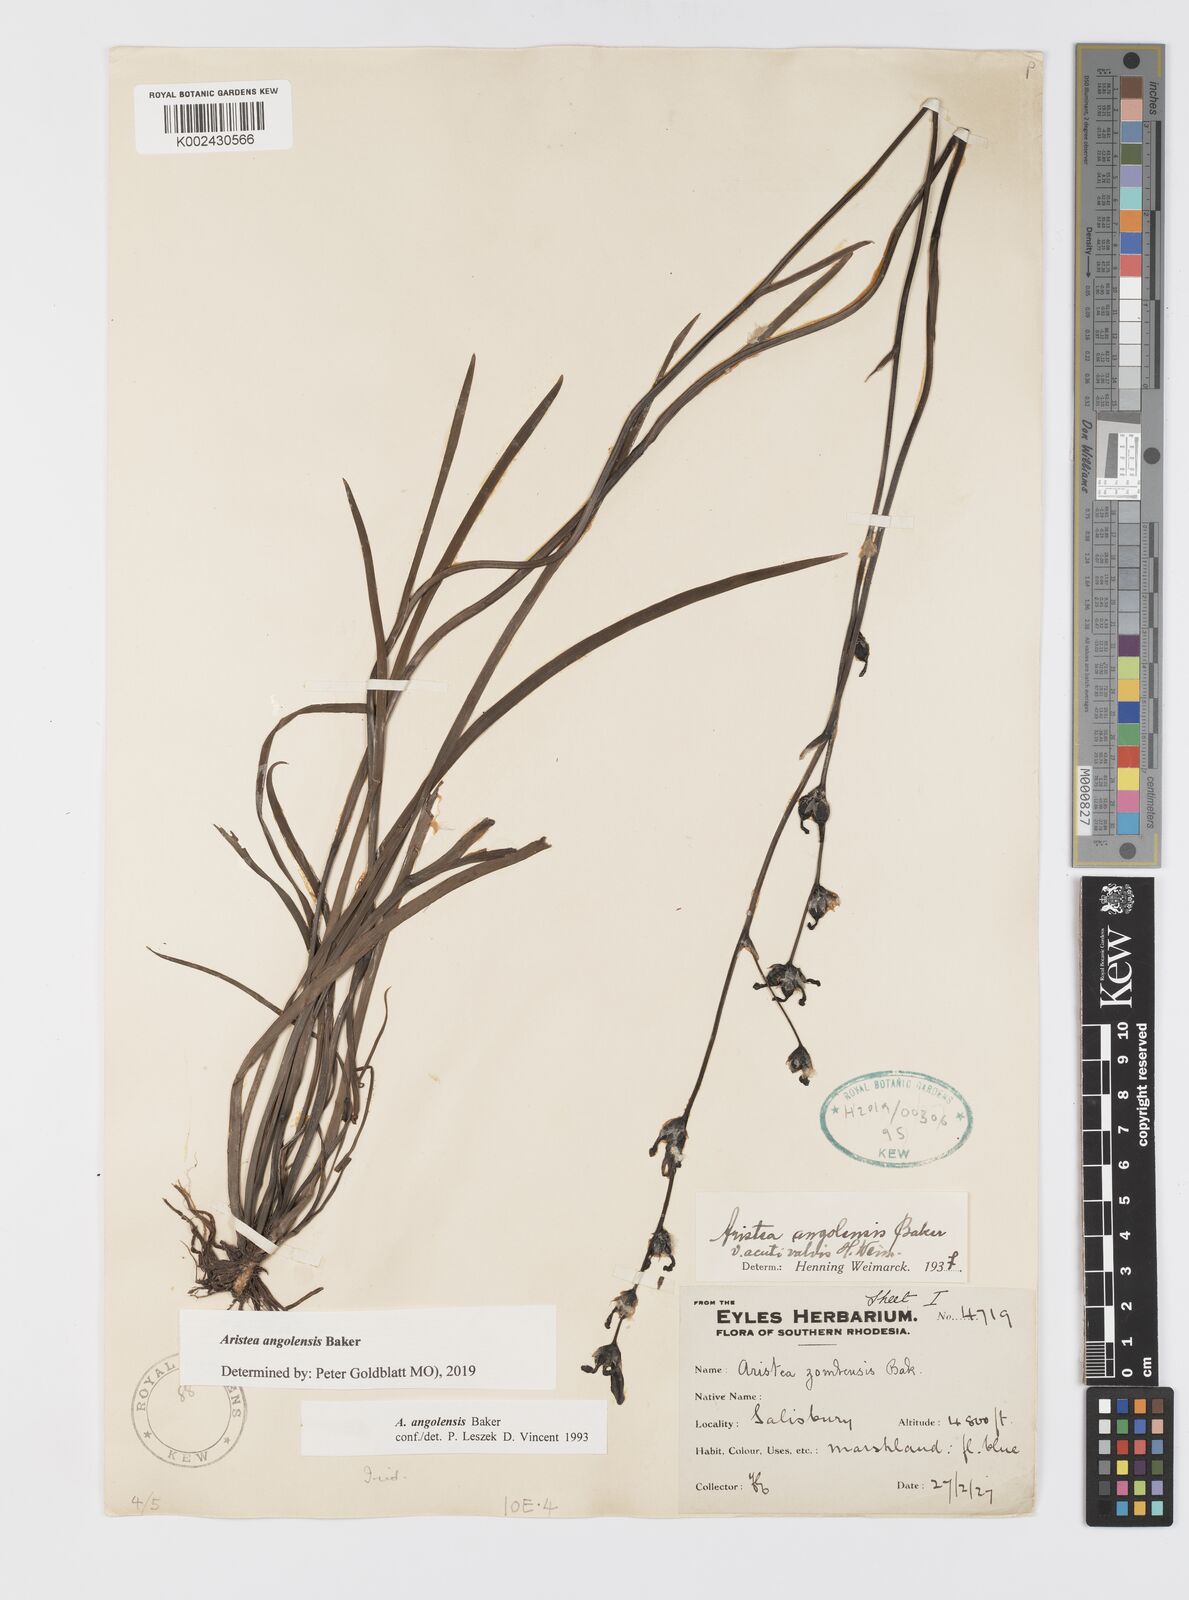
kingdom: Plantae
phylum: Tracheophyta
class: Liliopsida
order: Asparagales
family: Iridaceae
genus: Aristea
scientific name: Aristea angolensis
